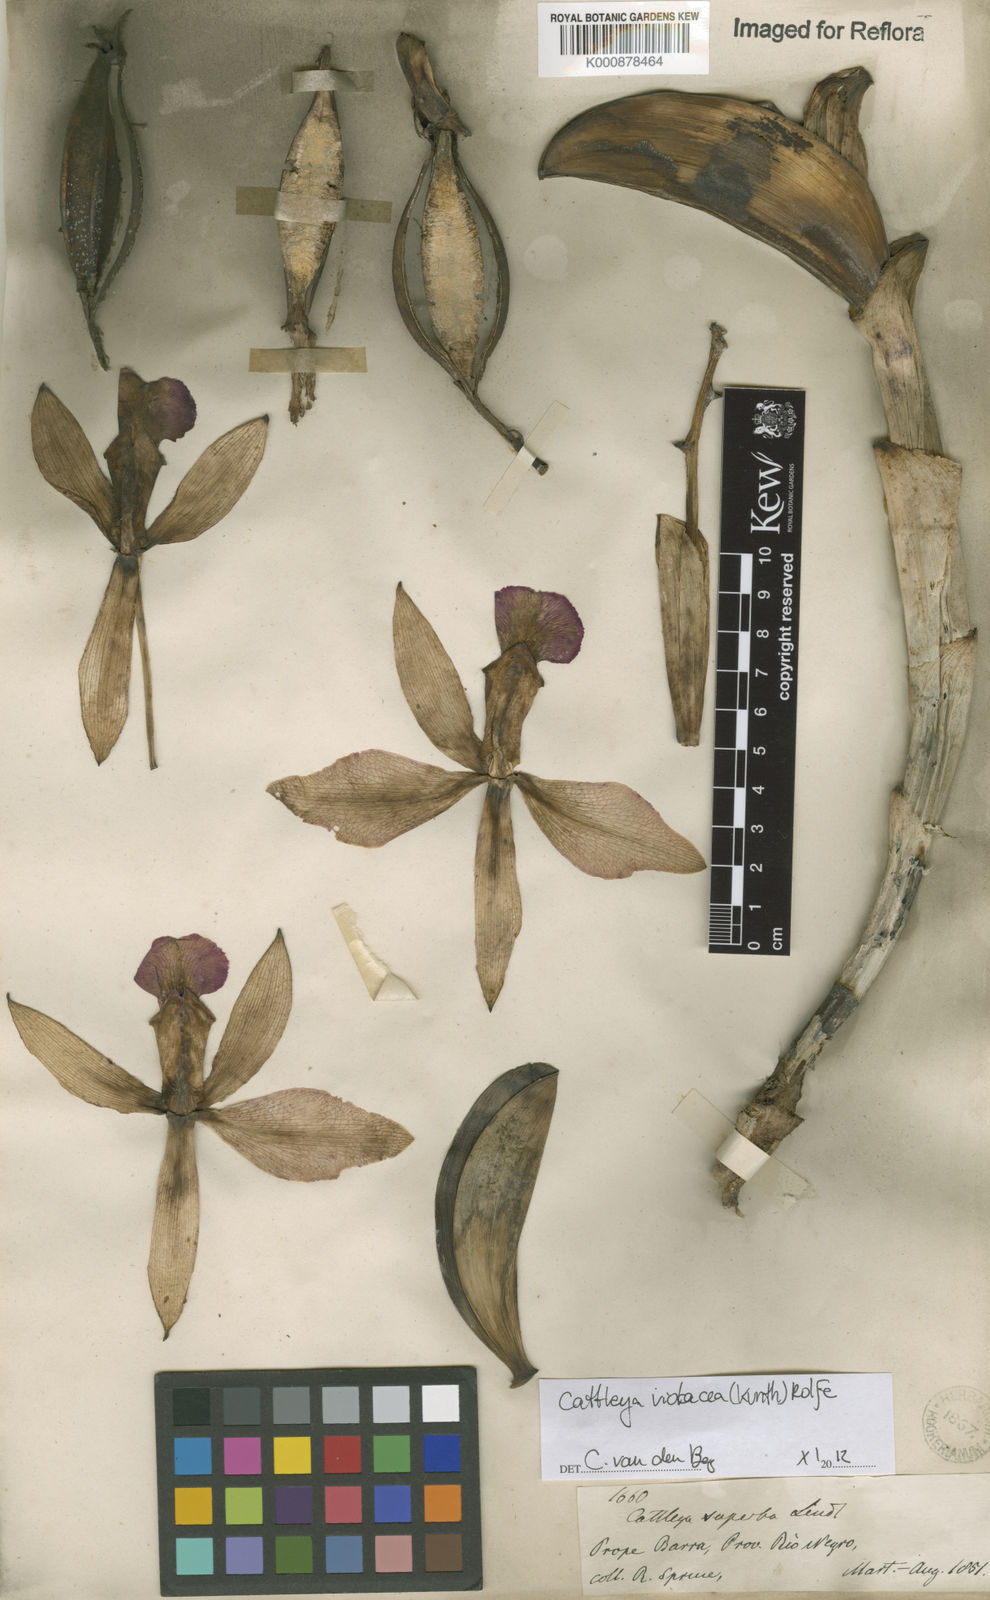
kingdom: Plantae
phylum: Tracheophyta
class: Liliopsida
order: Asparagales
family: Orchidaceae
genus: Cattleya
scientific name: Cattleya
